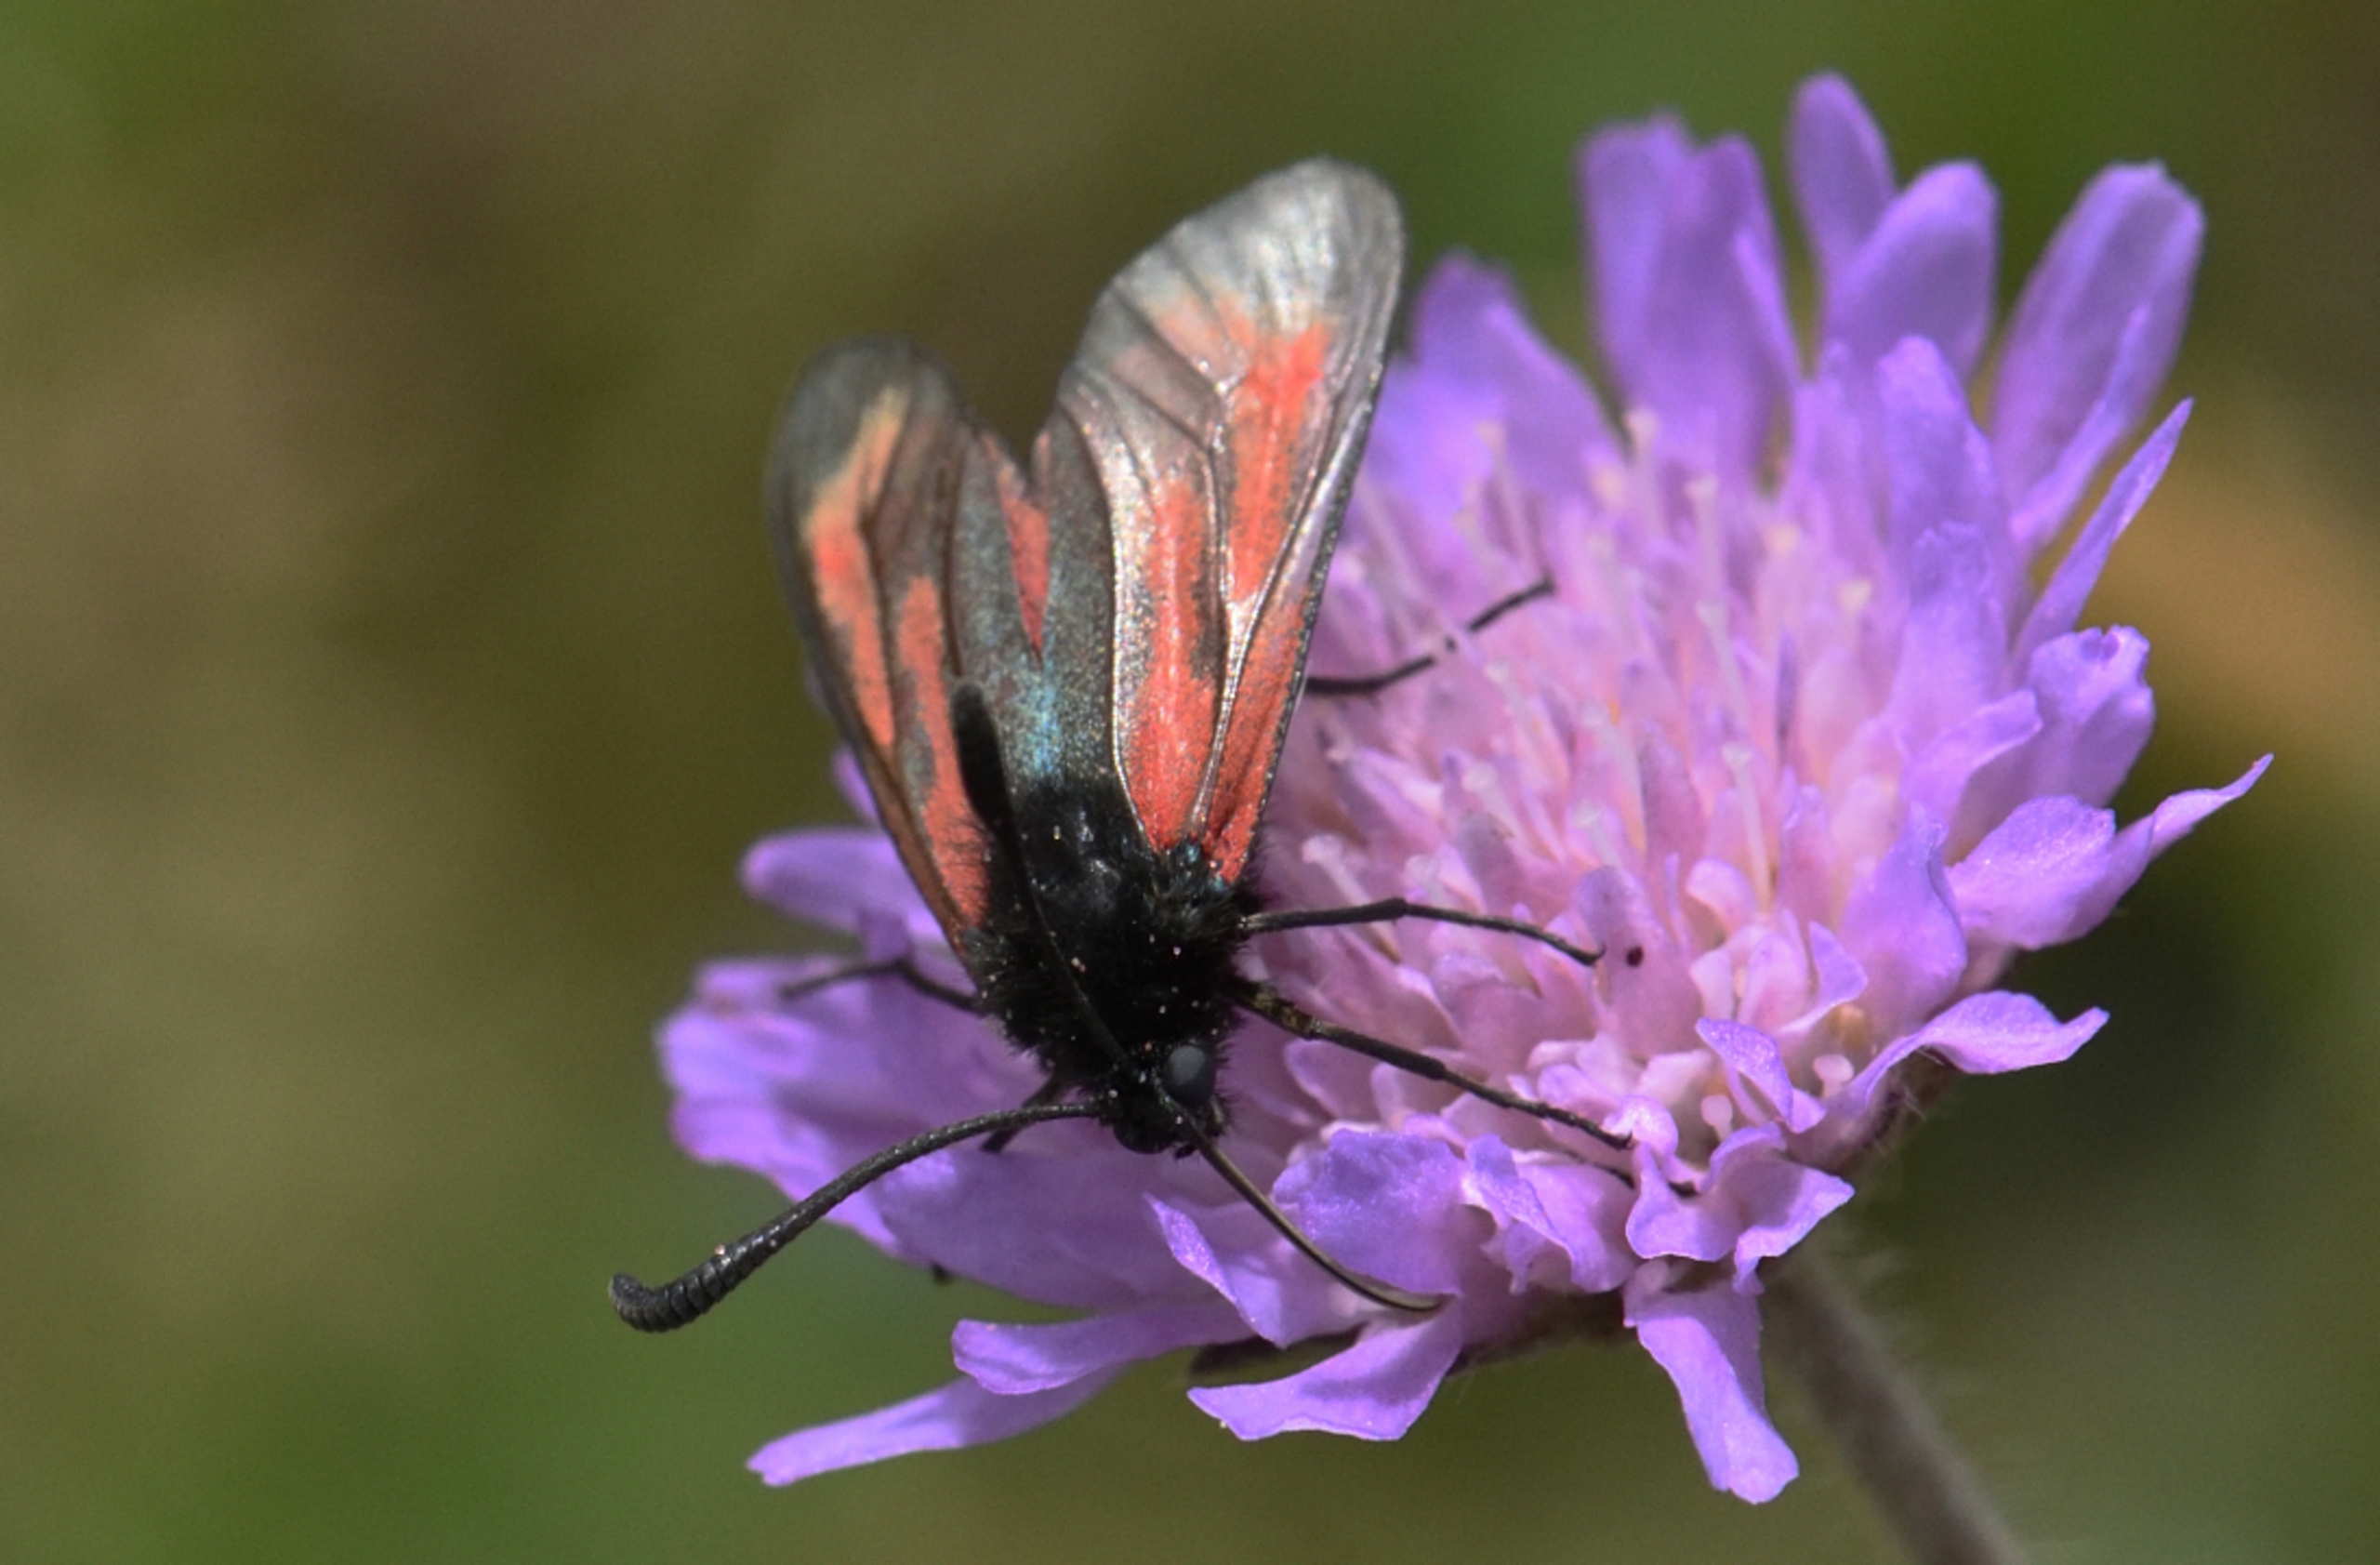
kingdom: Animalia
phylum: Arthropoda
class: Insecta
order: Lepidoptera
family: Zygaenidae
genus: Zygaena
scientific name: Zygaena minos
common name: Pimpernelkøllesværmer
